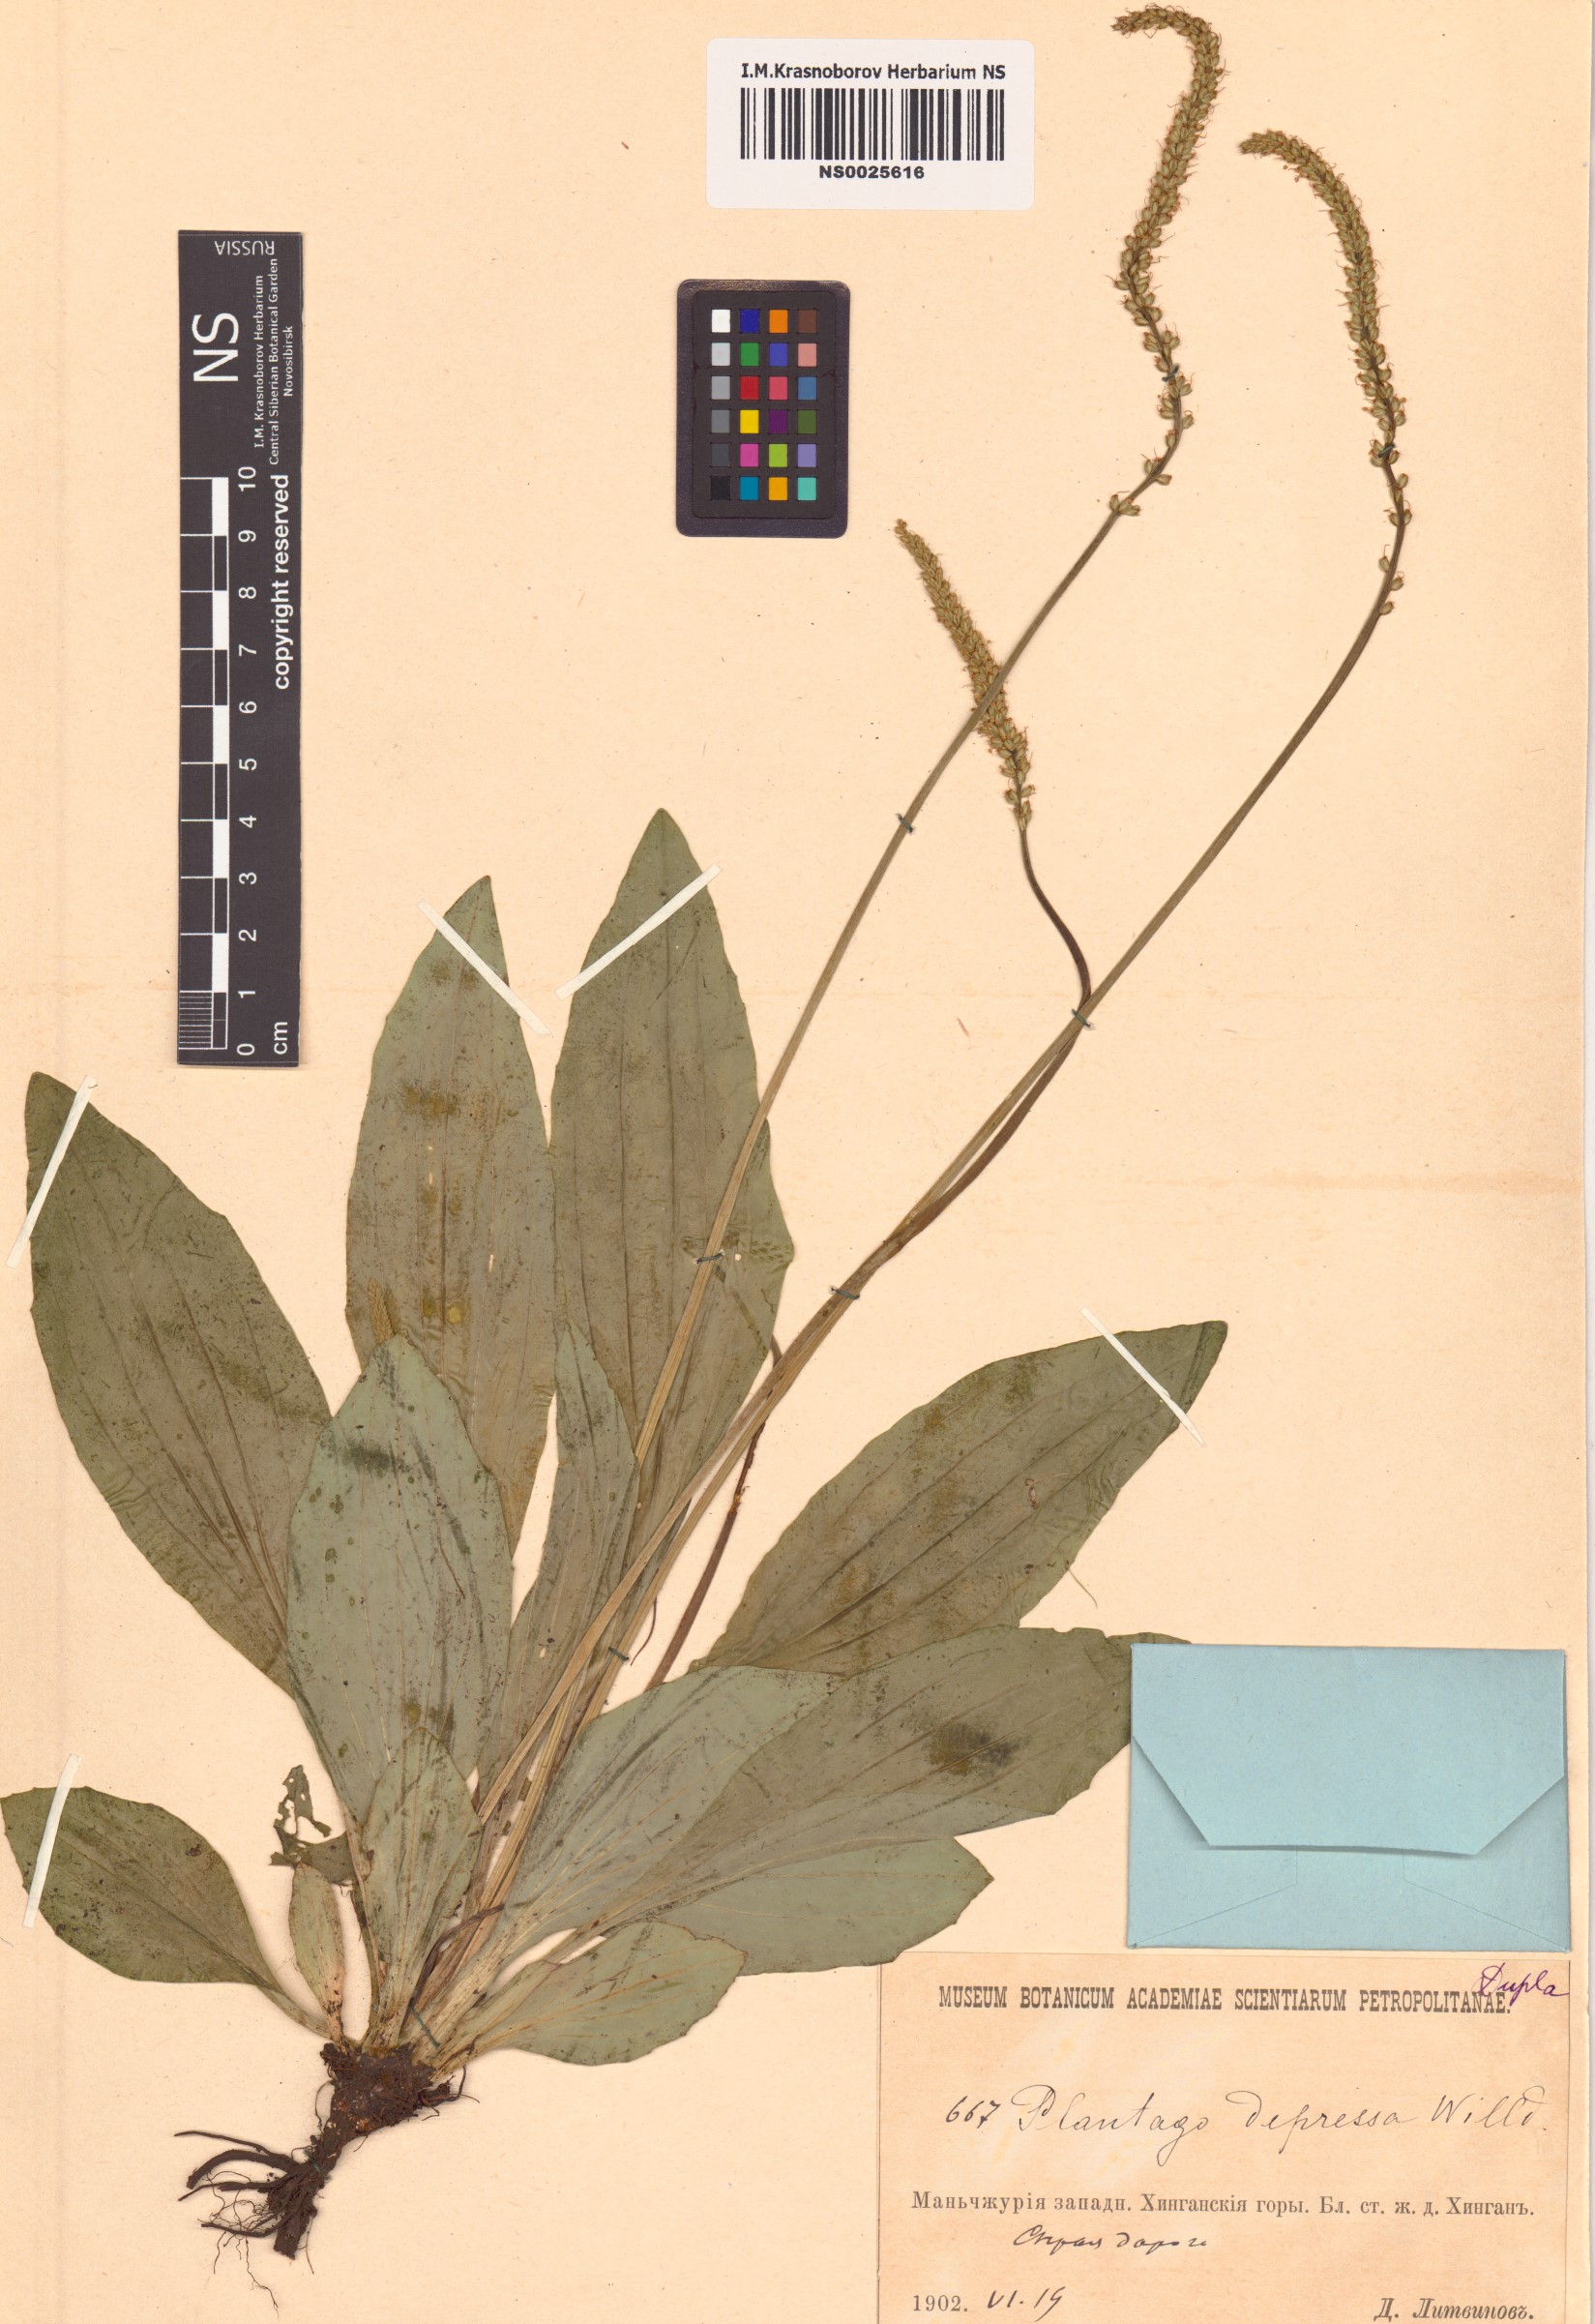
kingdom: Plantae
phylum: Tracheophyta
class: Magnoliopsida
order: Lamiales
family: Plantaginaceae
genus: Plantago
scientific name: Plantago depressa
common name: Depressed plantain
